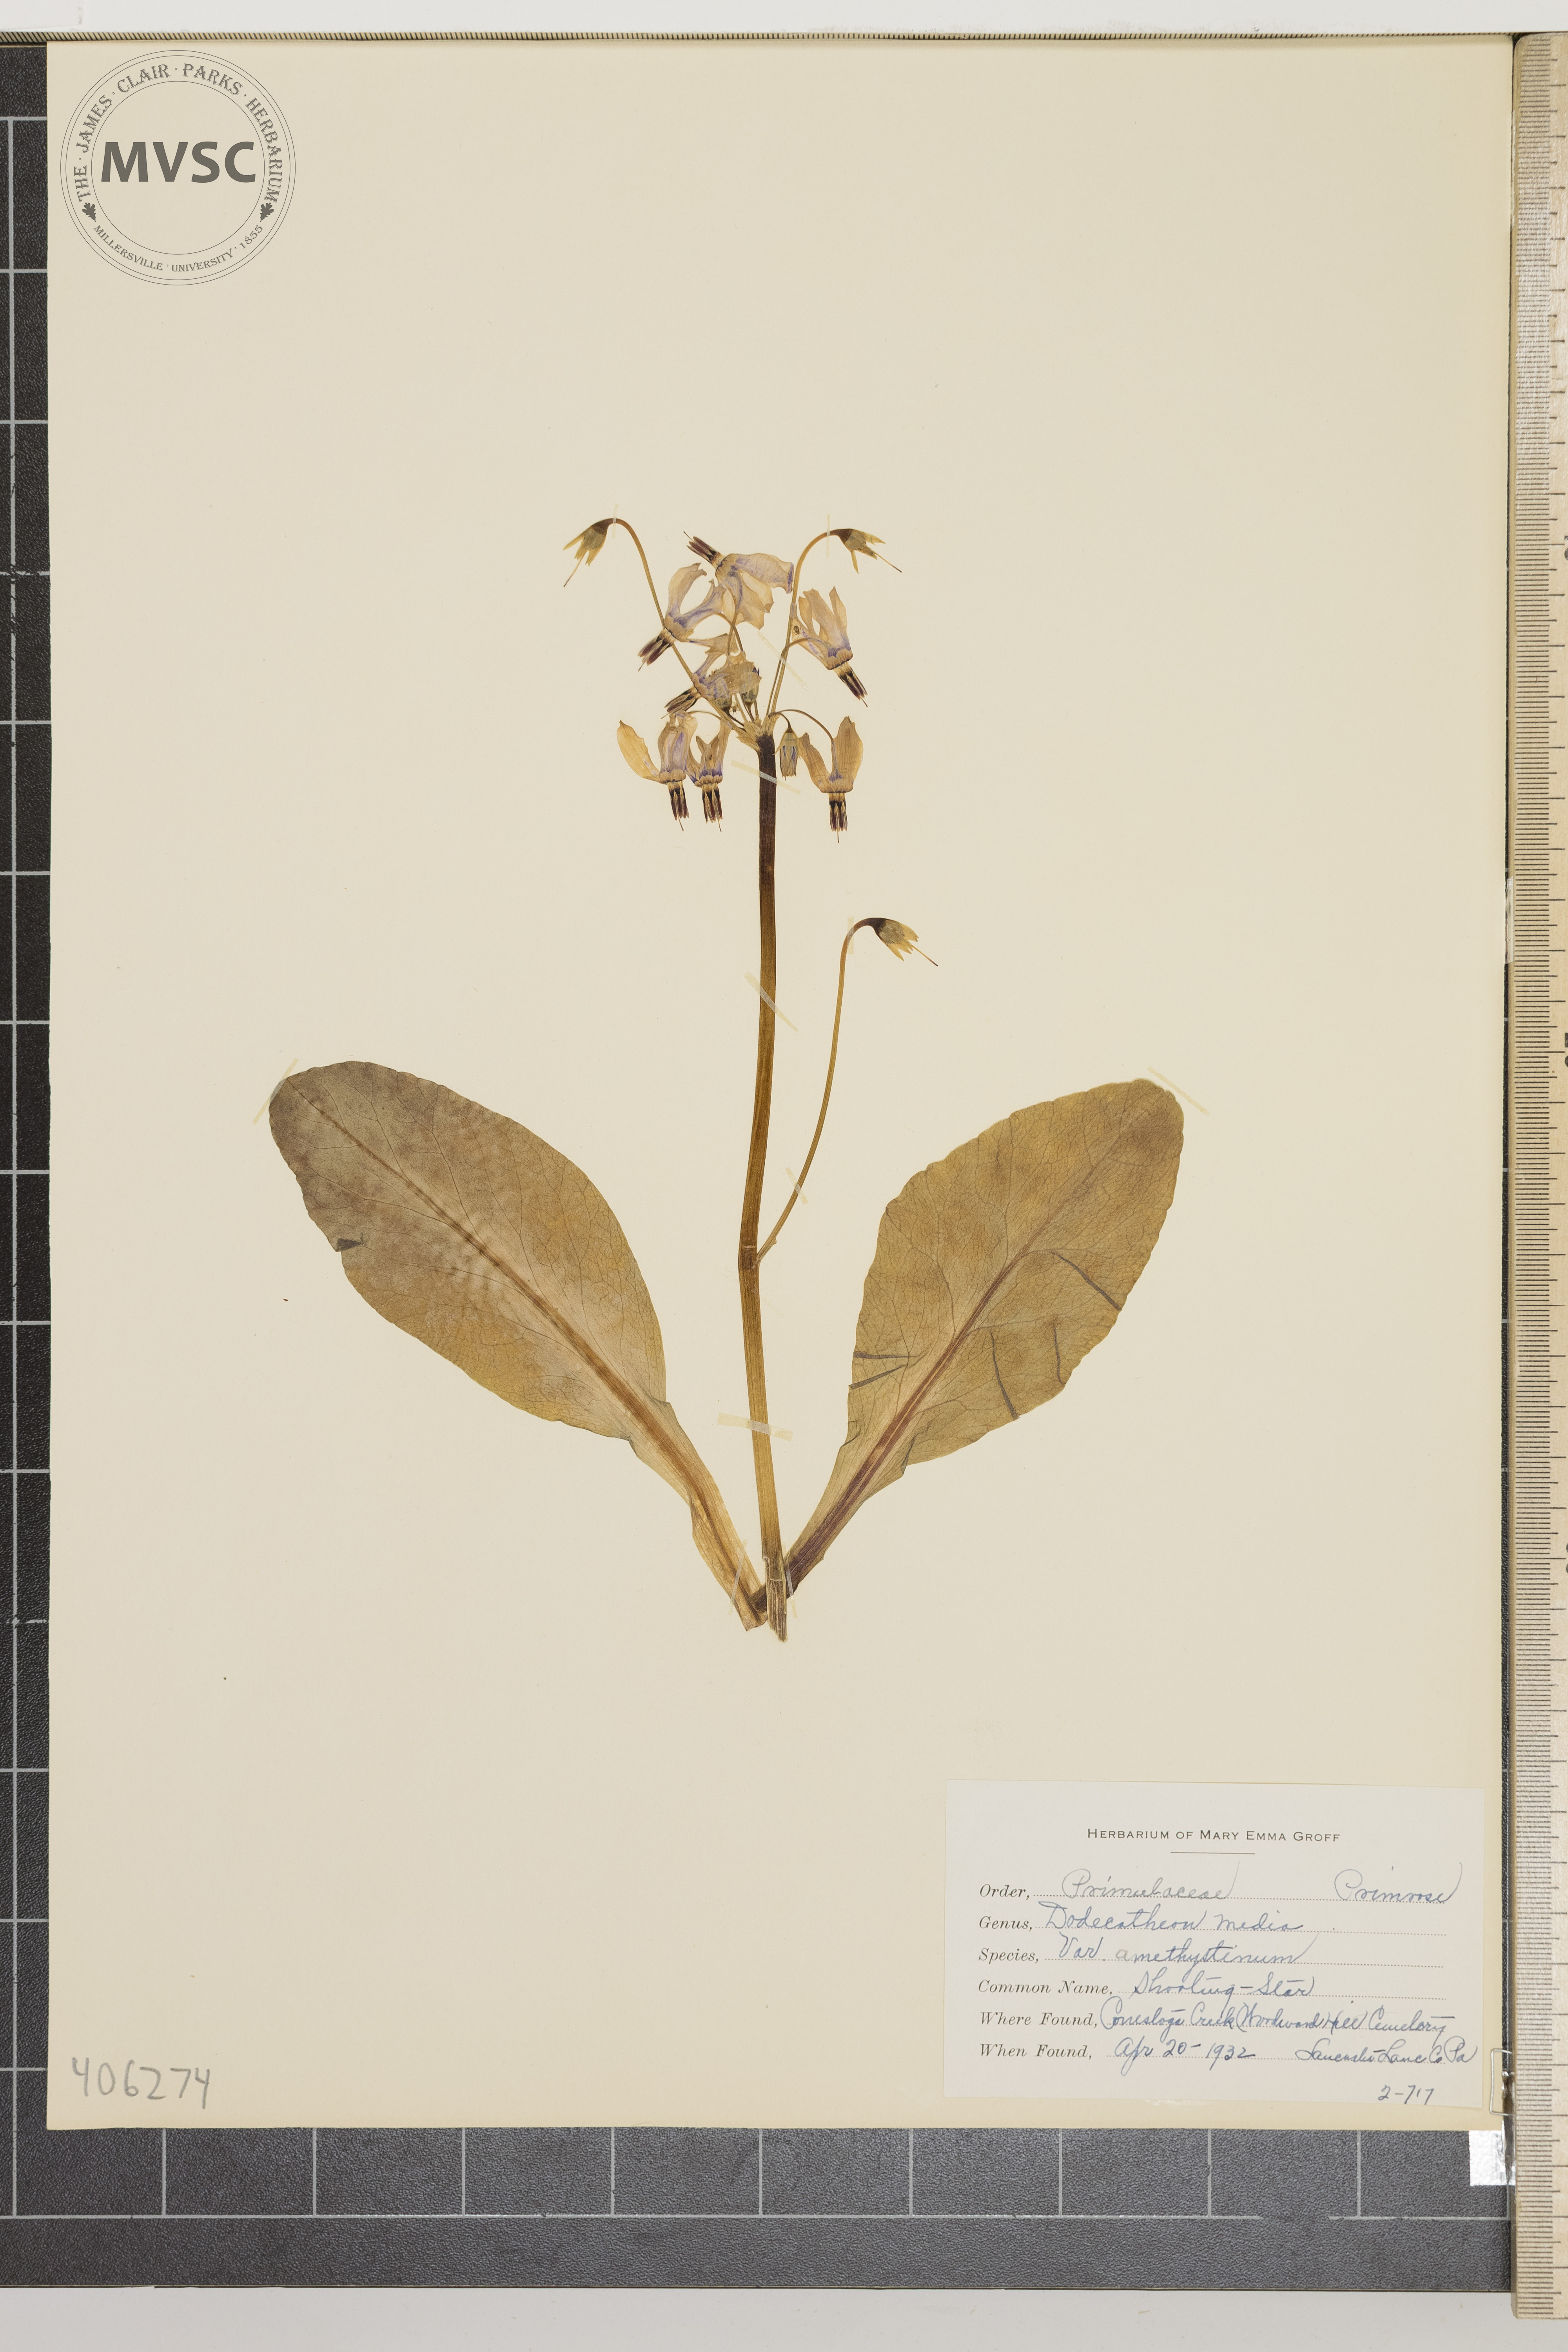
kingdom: Plantae
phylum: Tracheophyta
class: Magnoliopsida
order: Ericales
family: Primulaceae
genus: Dodecatheon
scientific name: Dodecatheon meadia
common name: jeweled shootingstar
